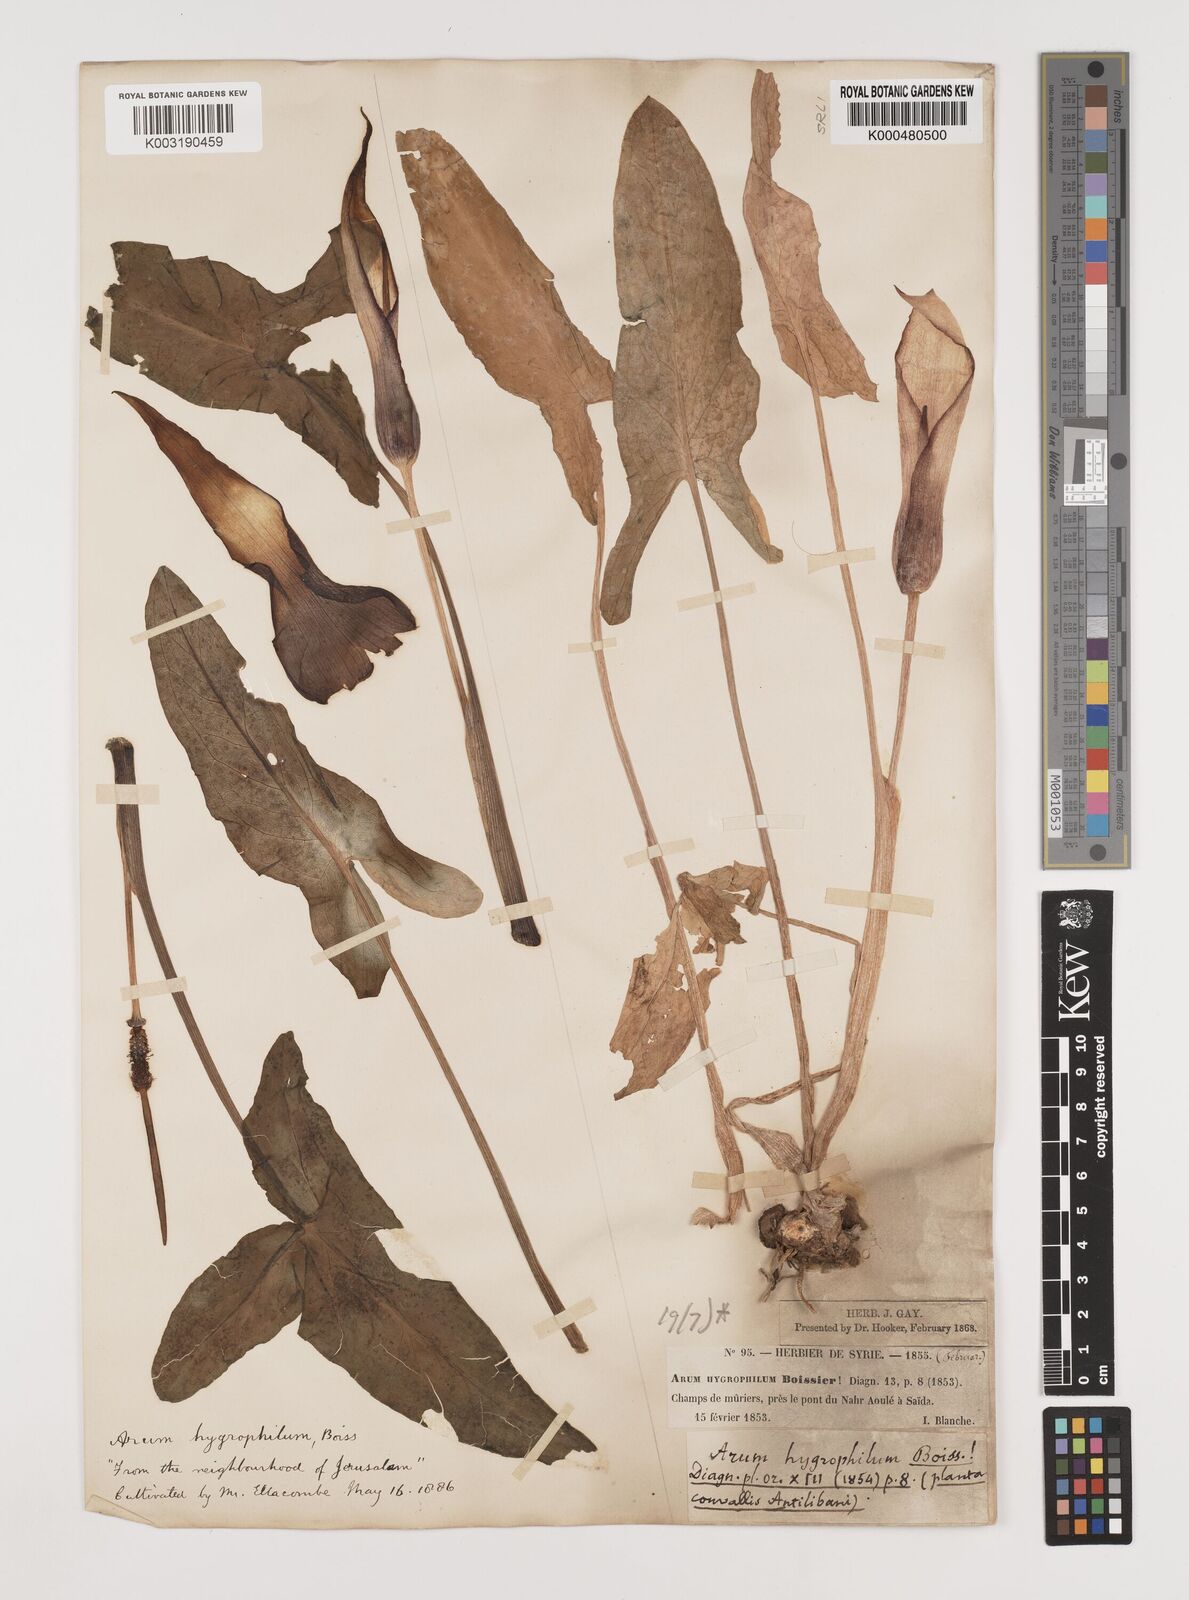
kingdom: Plantae
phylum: Tracheophyta
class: Liliopsida
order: Alismatales
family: Araceae
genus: Arum
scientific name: Arum hygrophilum
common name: Water arum
